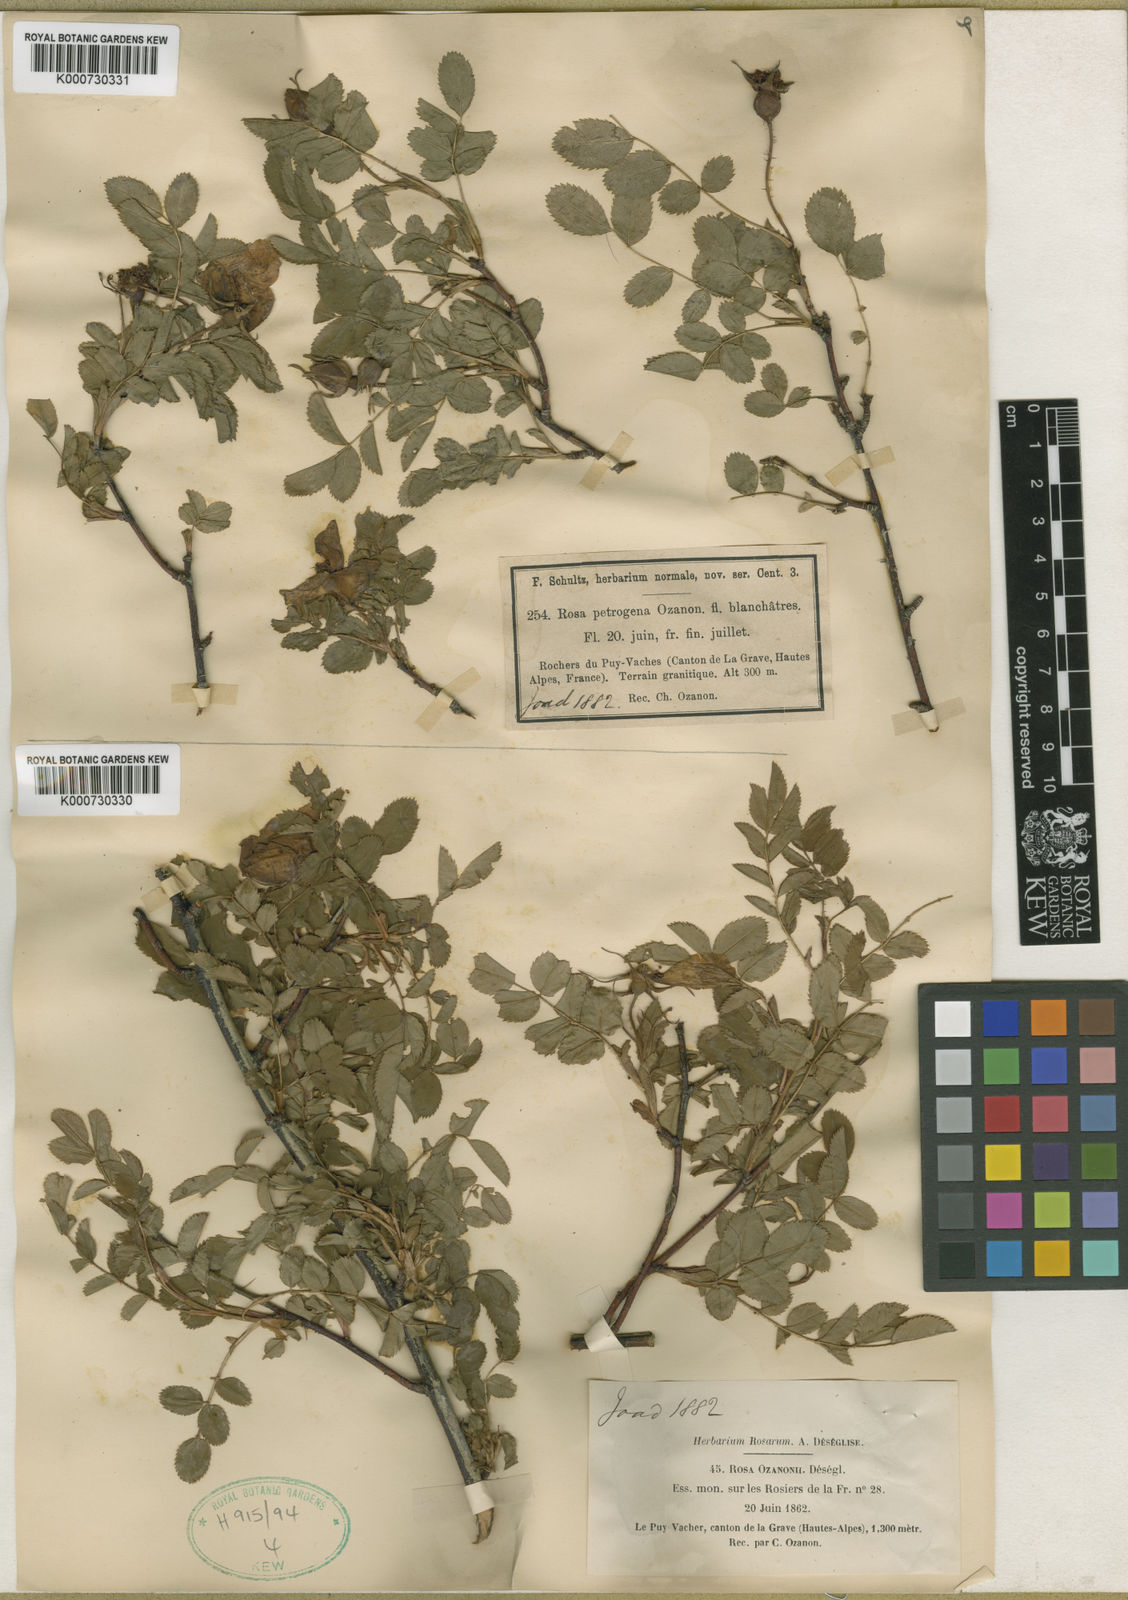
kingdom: Plantae
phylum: Tracheophyta
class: Magnoliopsida
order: Rosales
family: Rosaceae
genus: Rosa
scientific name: Rosa spinosissima
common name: Burnet rose
